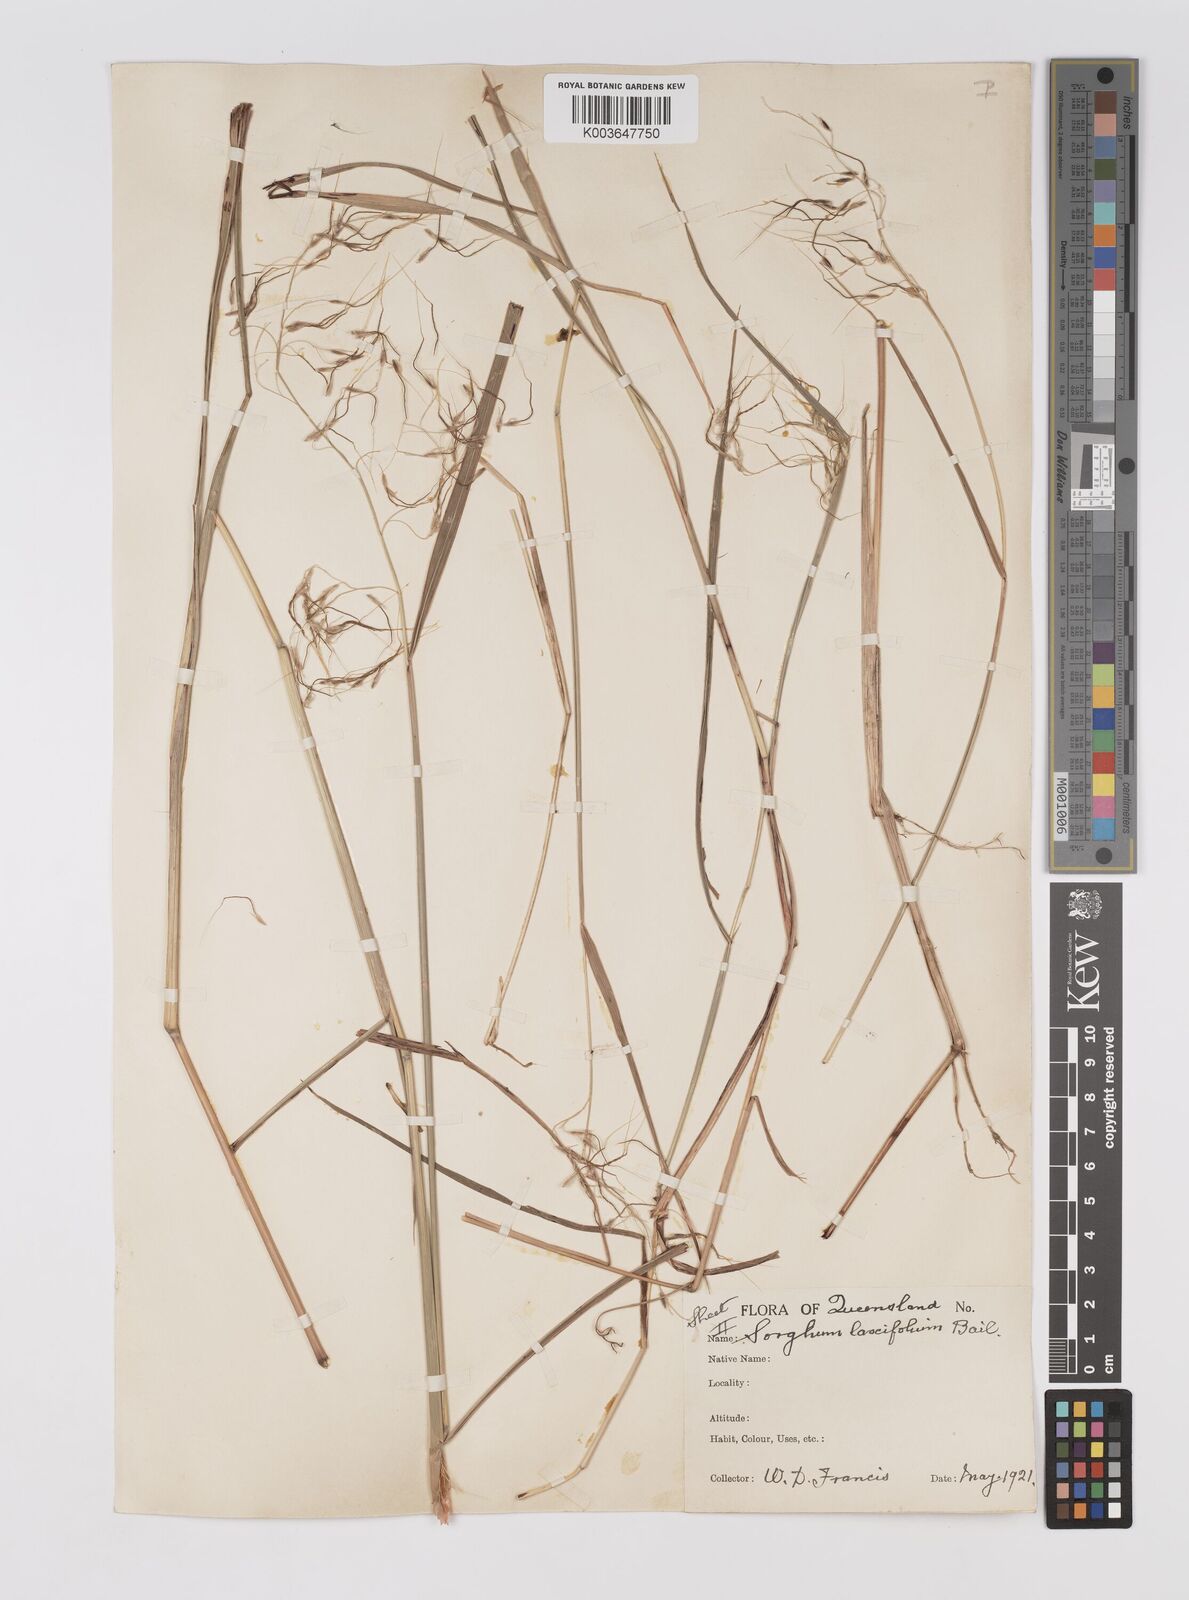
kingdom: Plantae
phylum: Tracheophyta
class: Liliopsida
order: Poales
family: Poaceae
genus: Sorghum
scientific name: Sorghum laxiflorum
